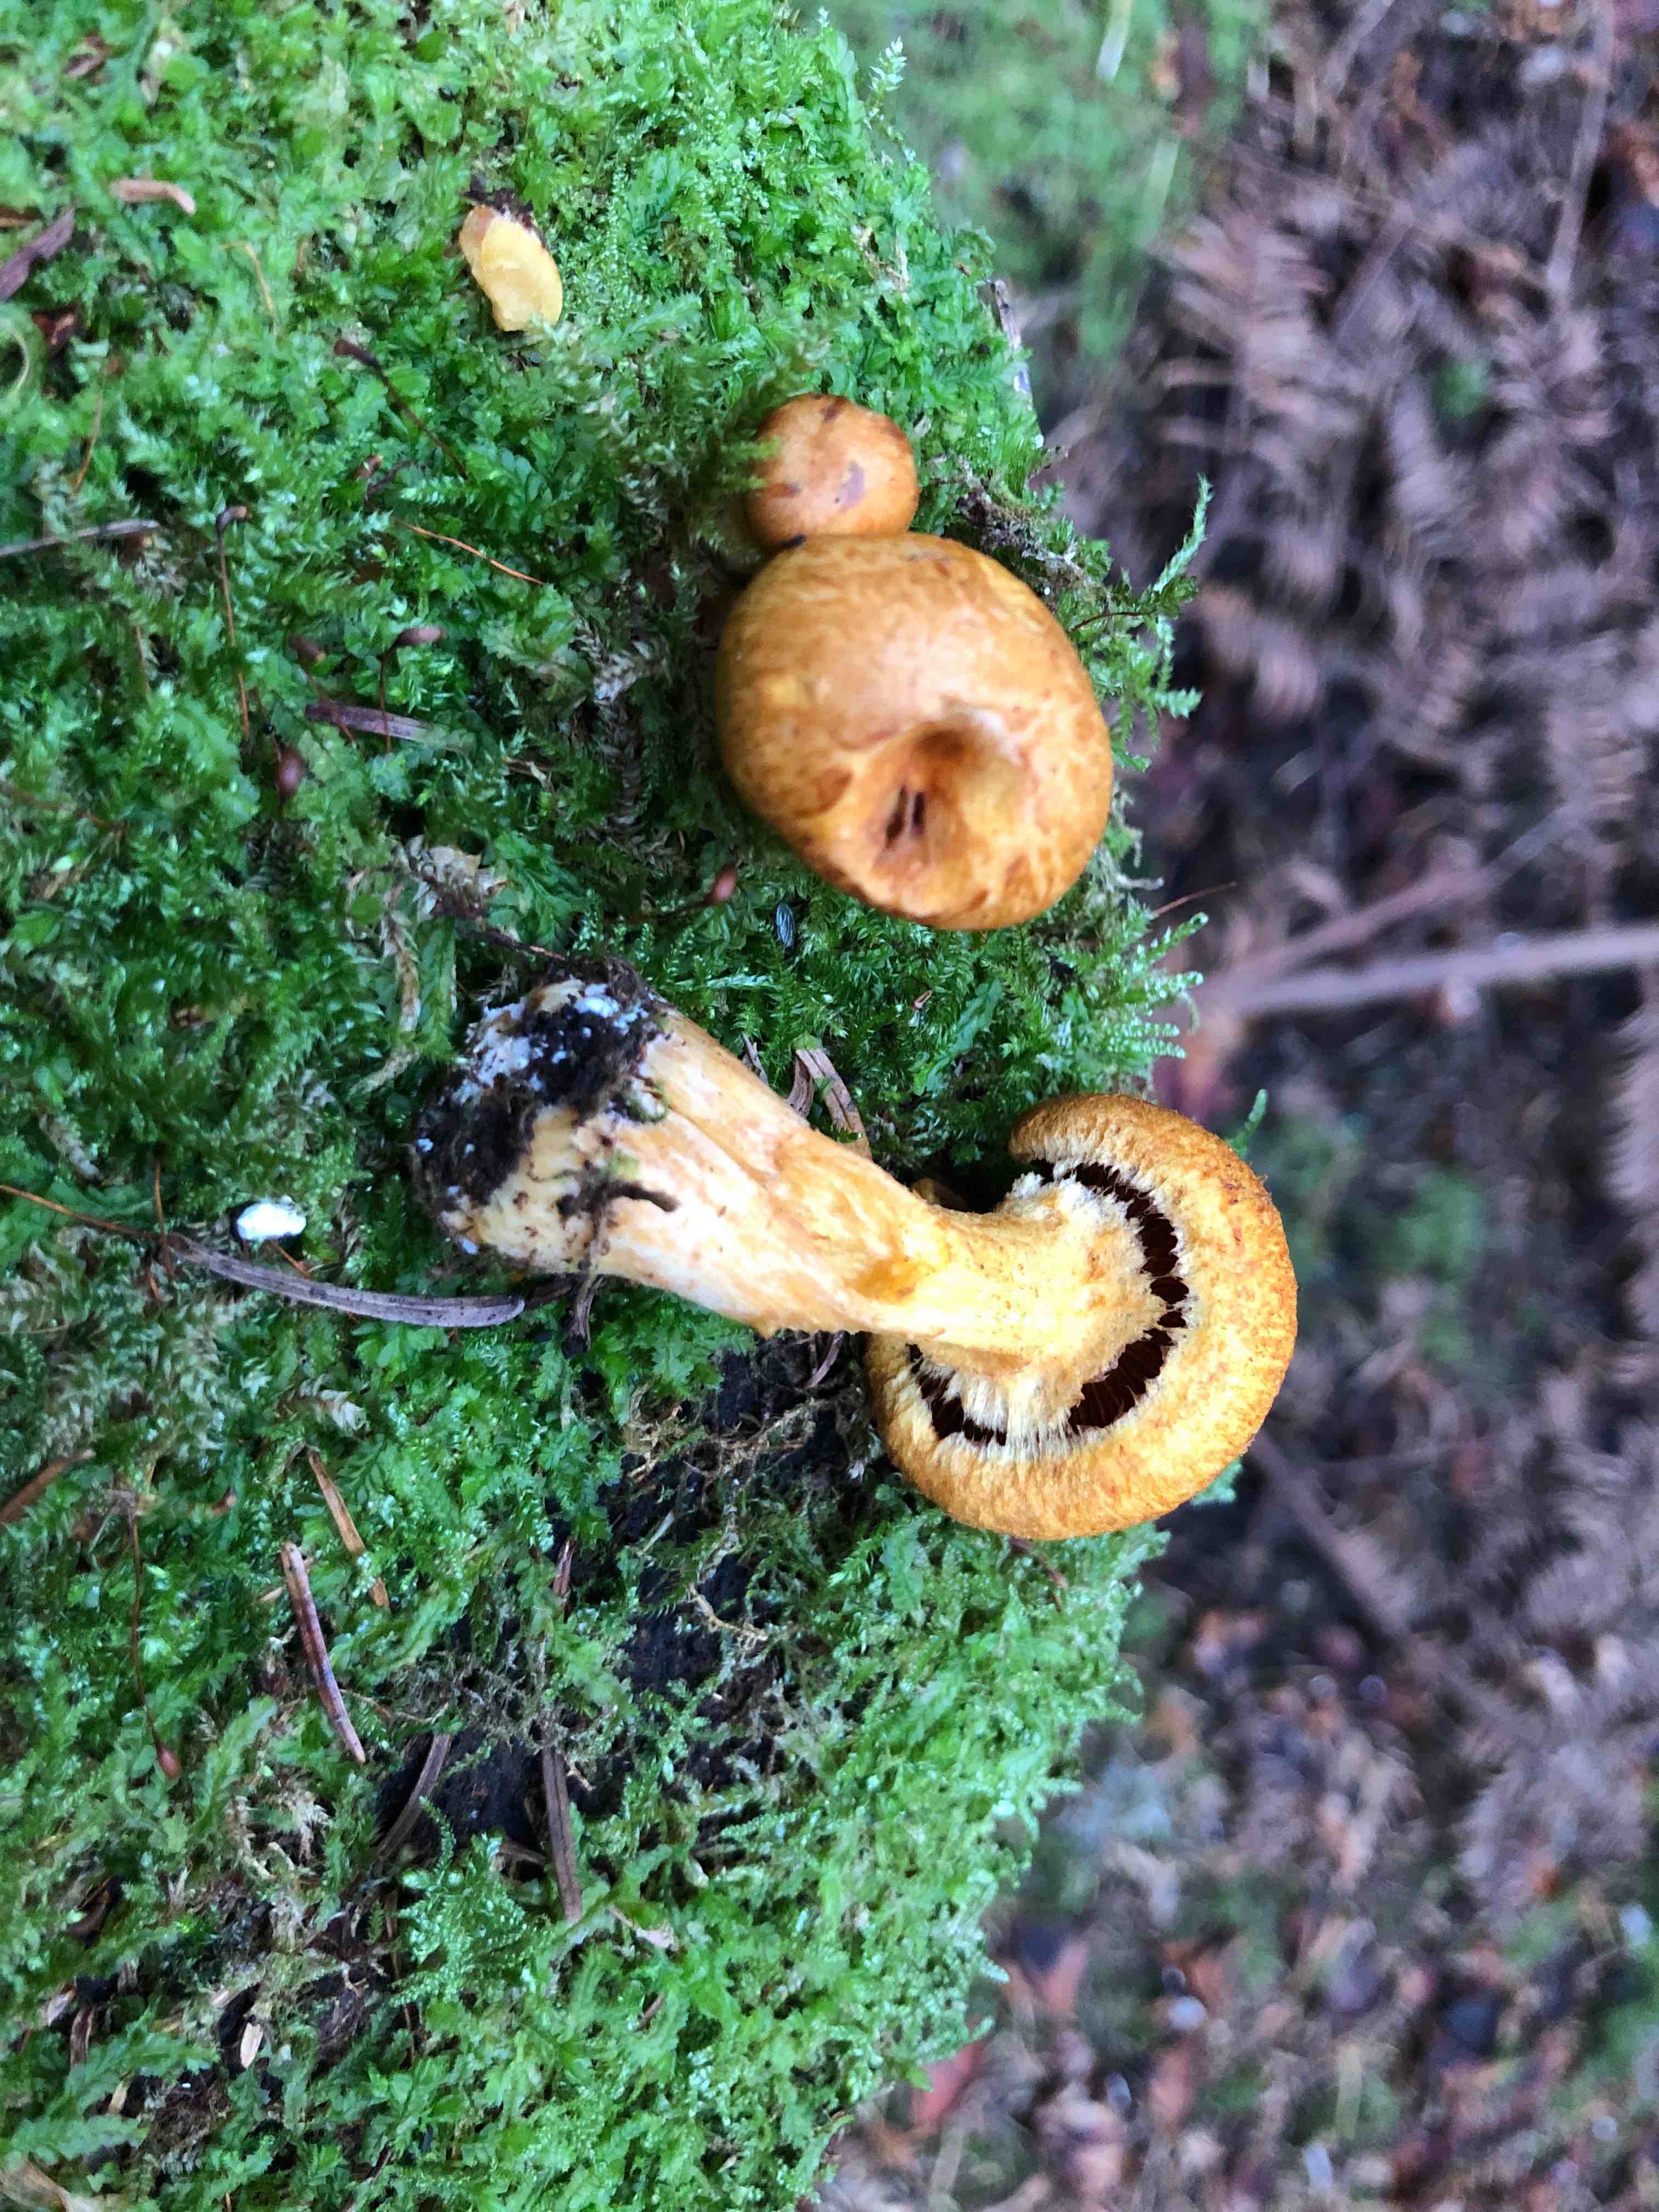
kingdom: Fungi
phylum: Basidiomycota
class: Agaricomycetes
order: Agaricales
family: Hymenogastraceae
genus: Gymnopilus
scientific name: Gymnopilus
